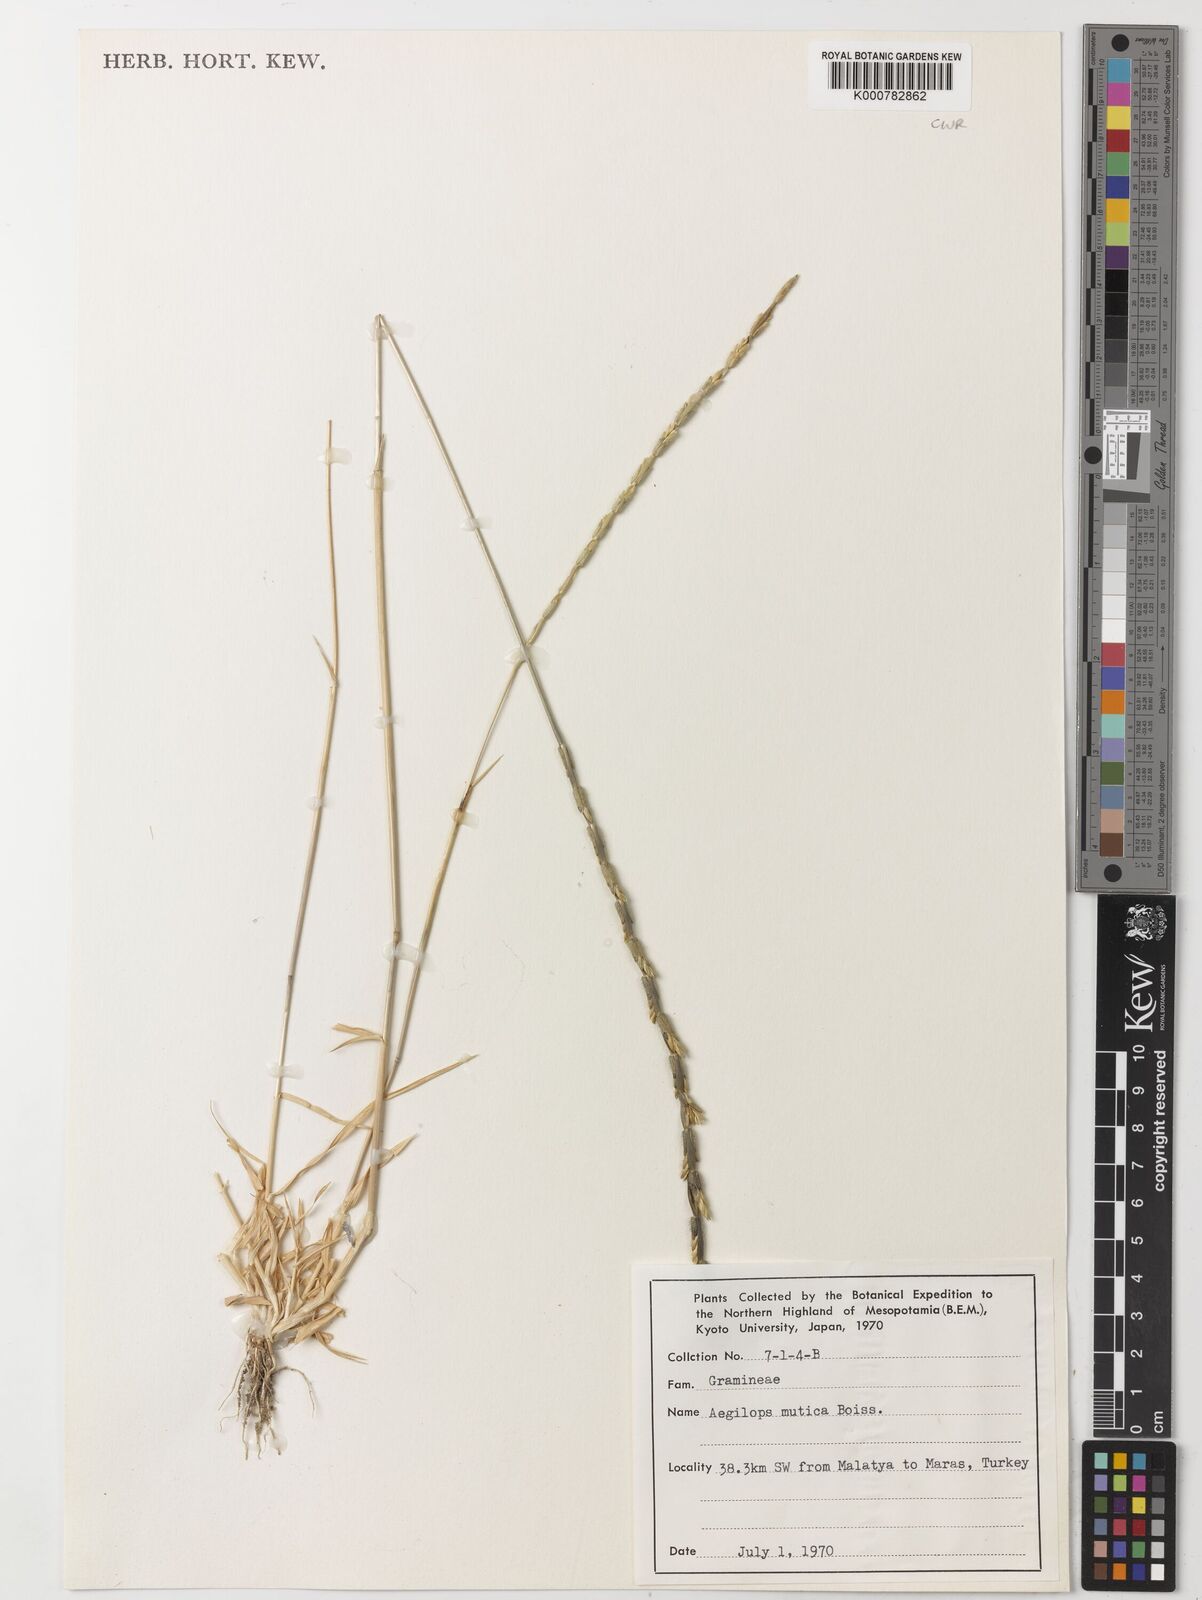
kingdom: Plantae
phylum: Tracheophyta
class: Liliopsida
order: Poales
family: Poaceae
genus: Aegilops
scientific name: Aegilops mutica
